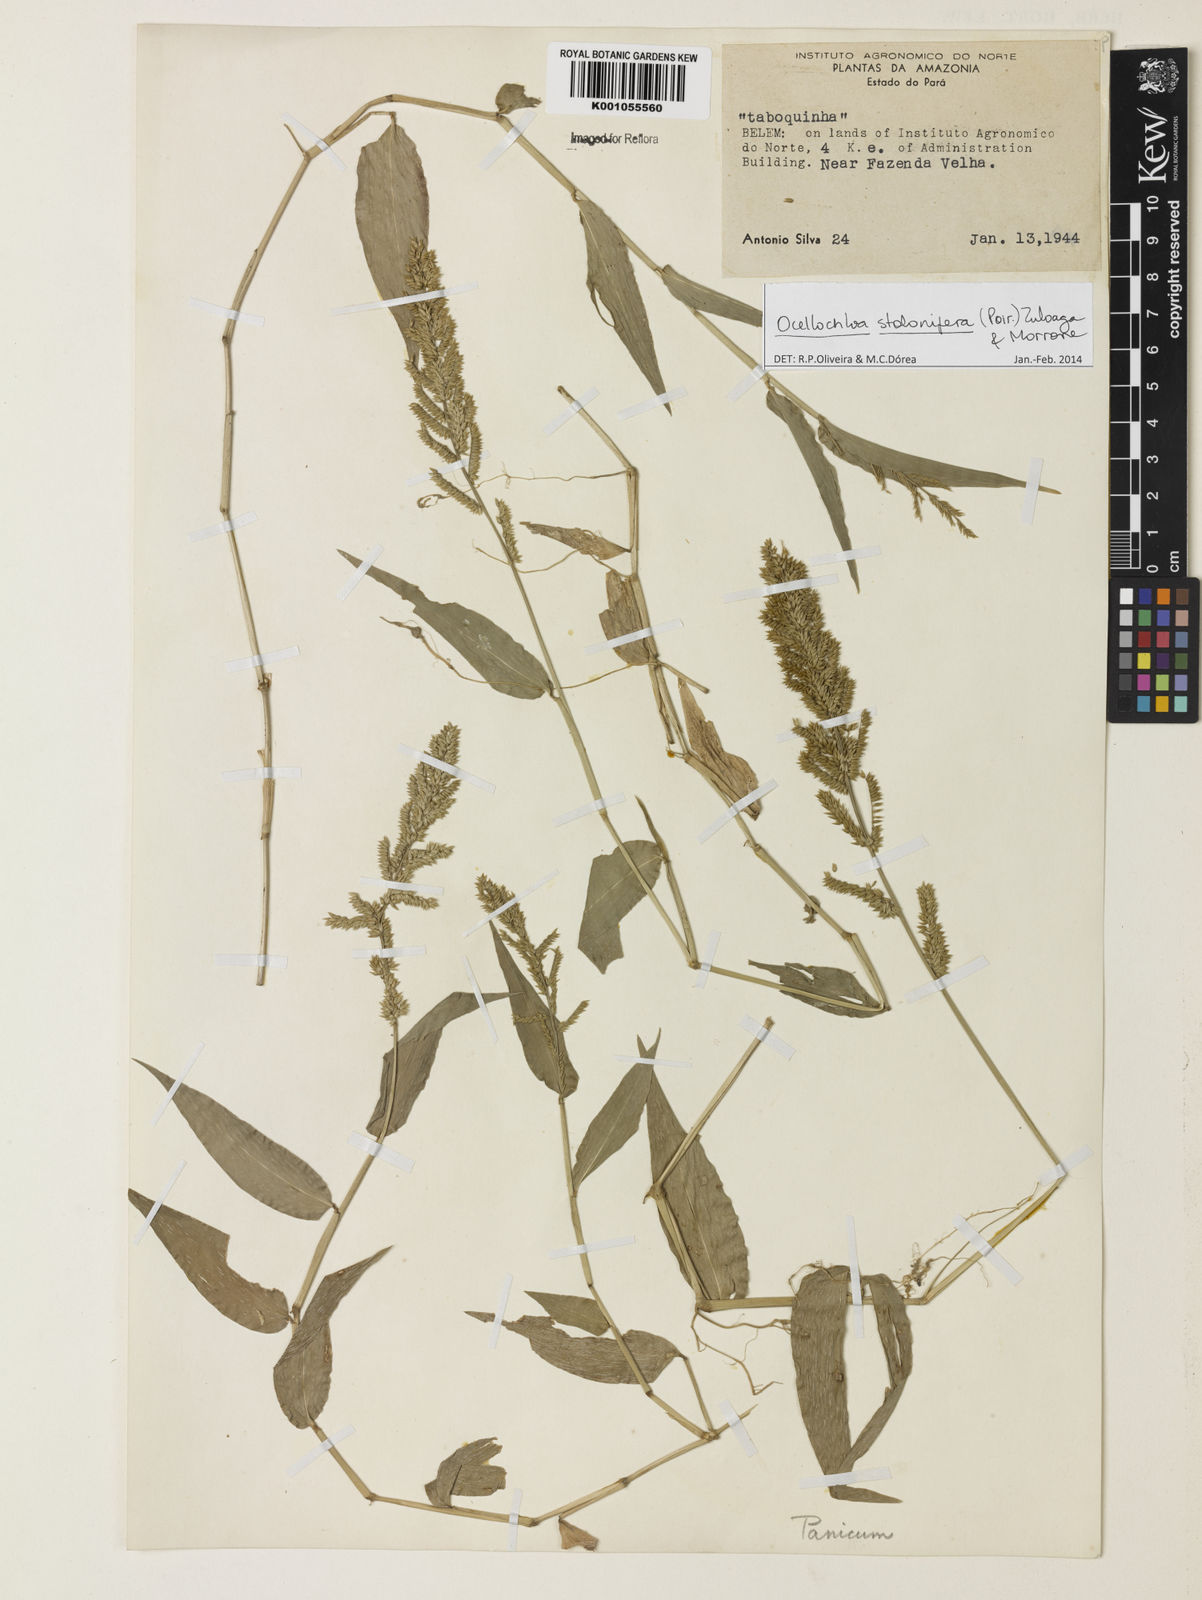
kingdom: Plantae
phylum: Tracheophyta
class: Liliopsida
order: Poales
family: Poaceae
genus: Ocellochloa
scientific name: Ocellochloa stolonifera
